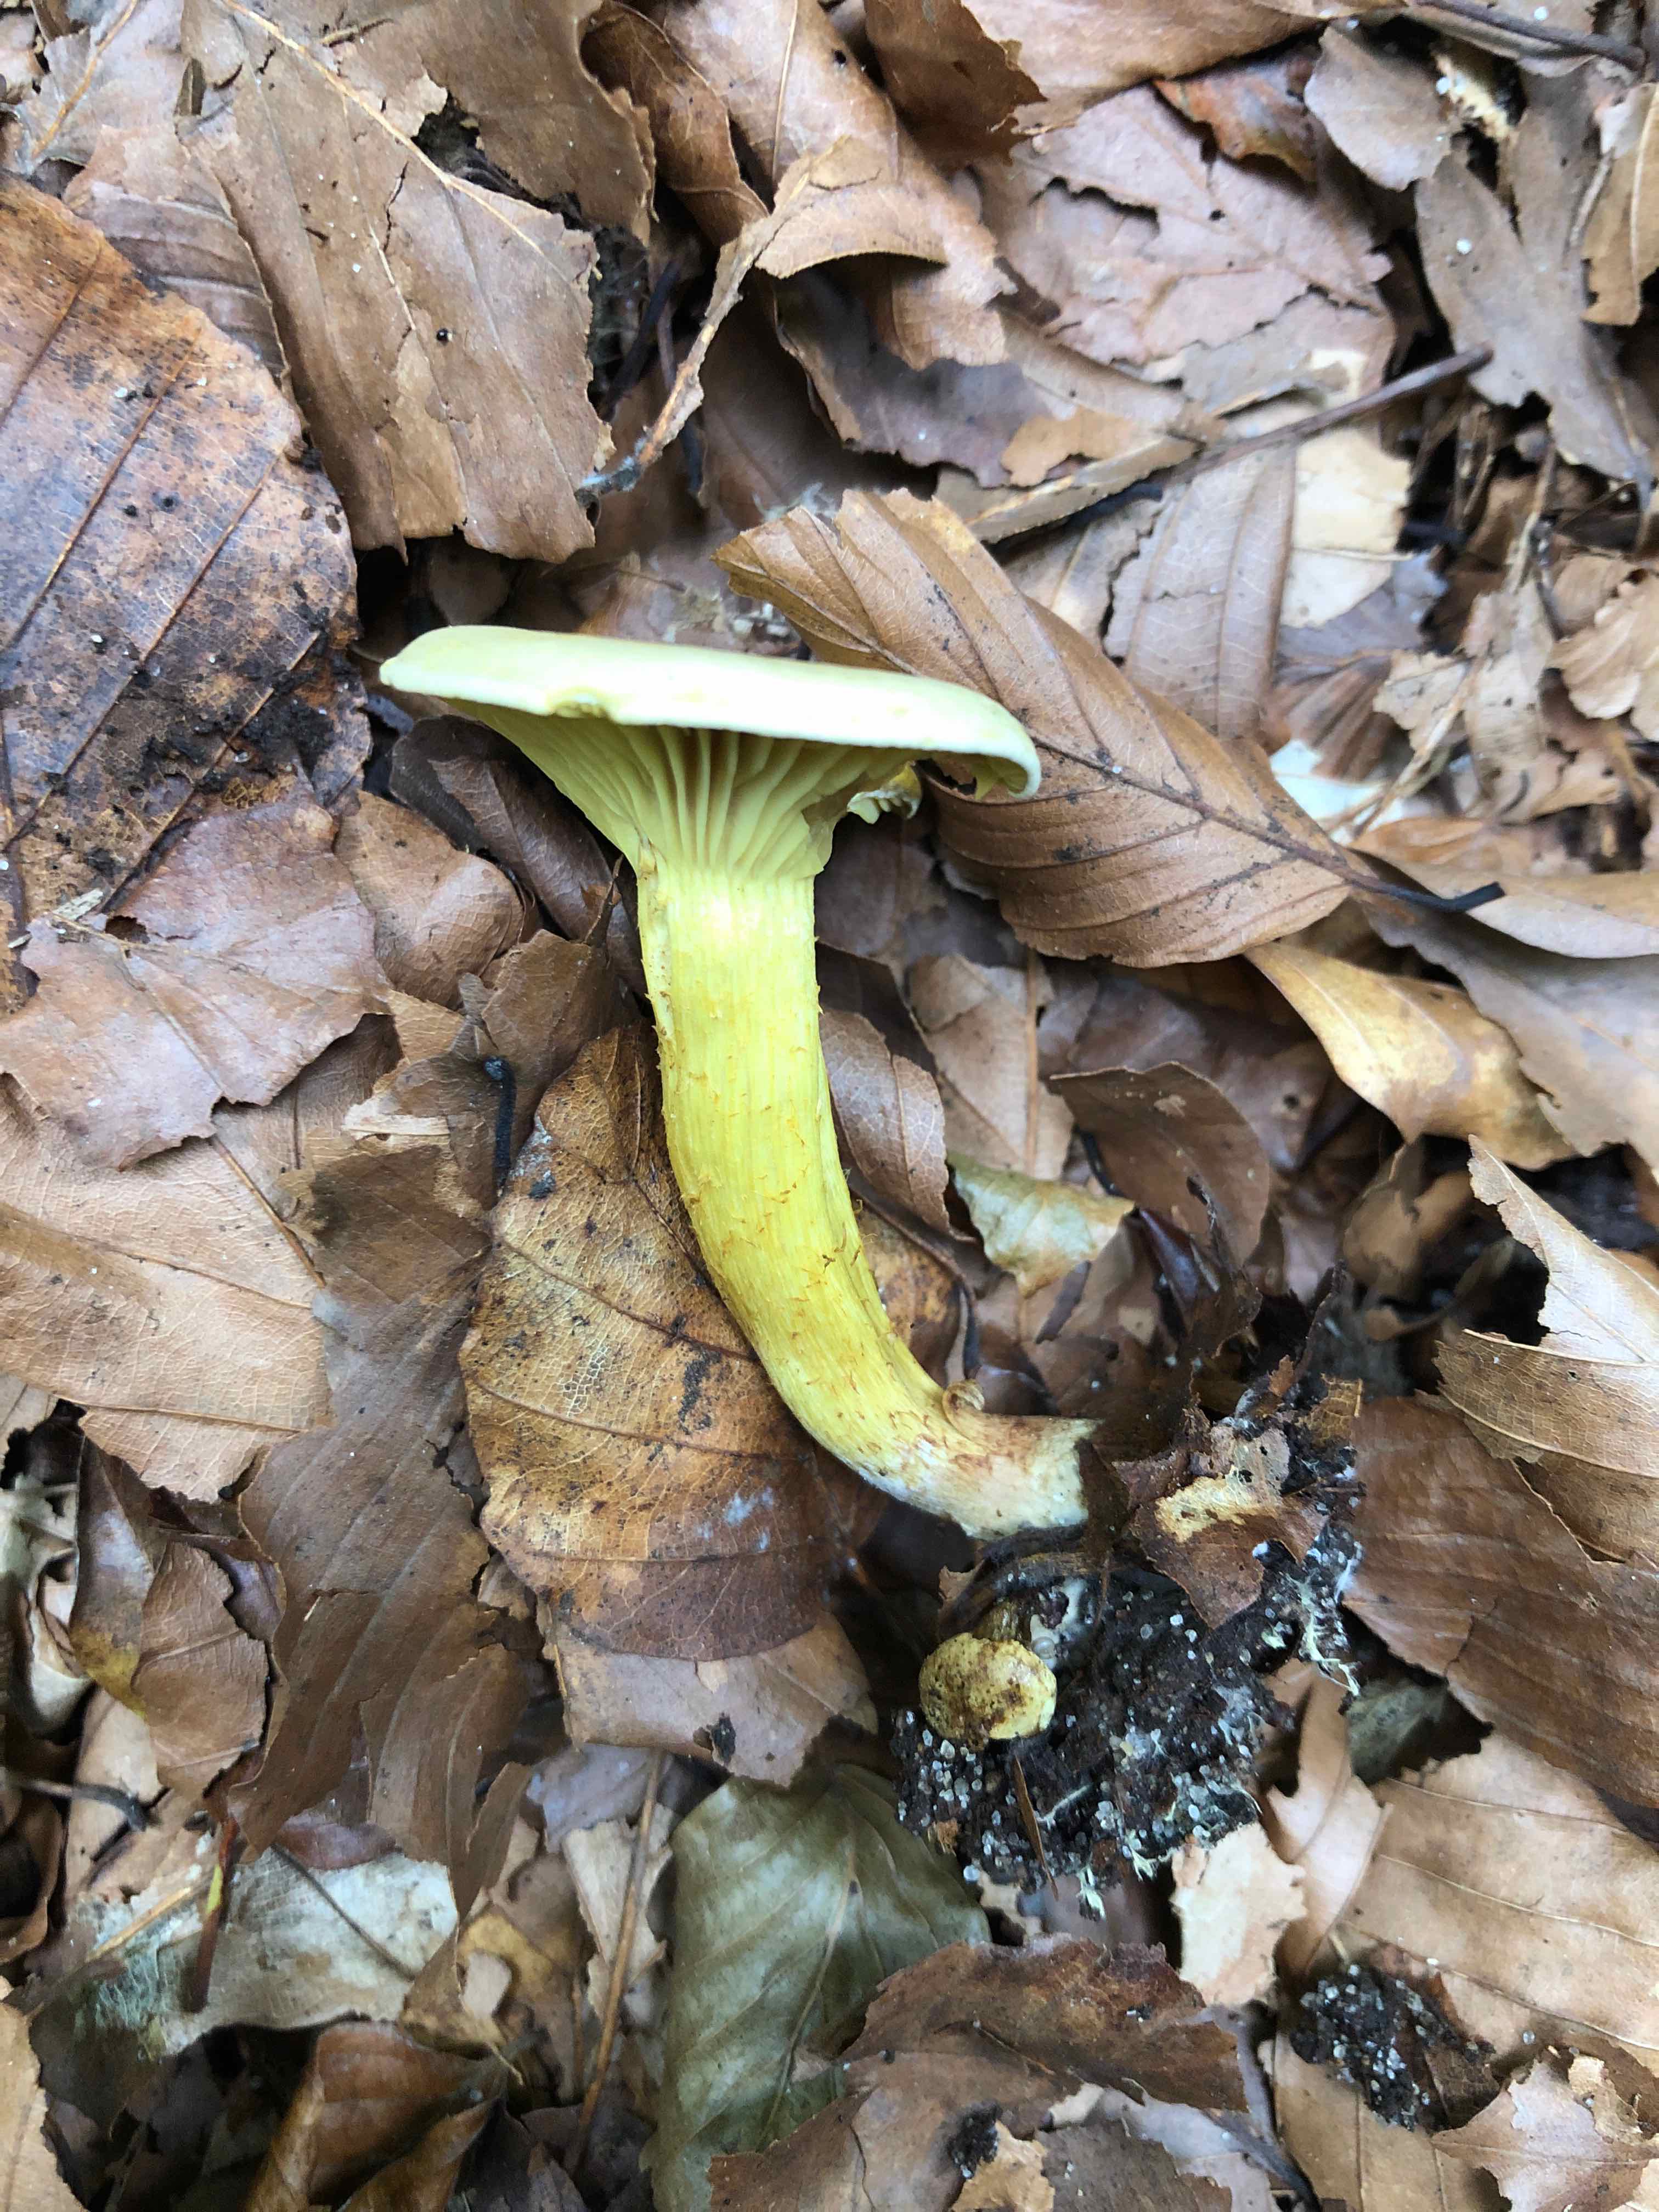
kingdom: Fungi
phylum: Basidiomycota
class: Agaricomycetes
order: Agaricales
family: Tricholomataceae
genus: Tricholoma
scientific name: Tricholoma sulphureum
